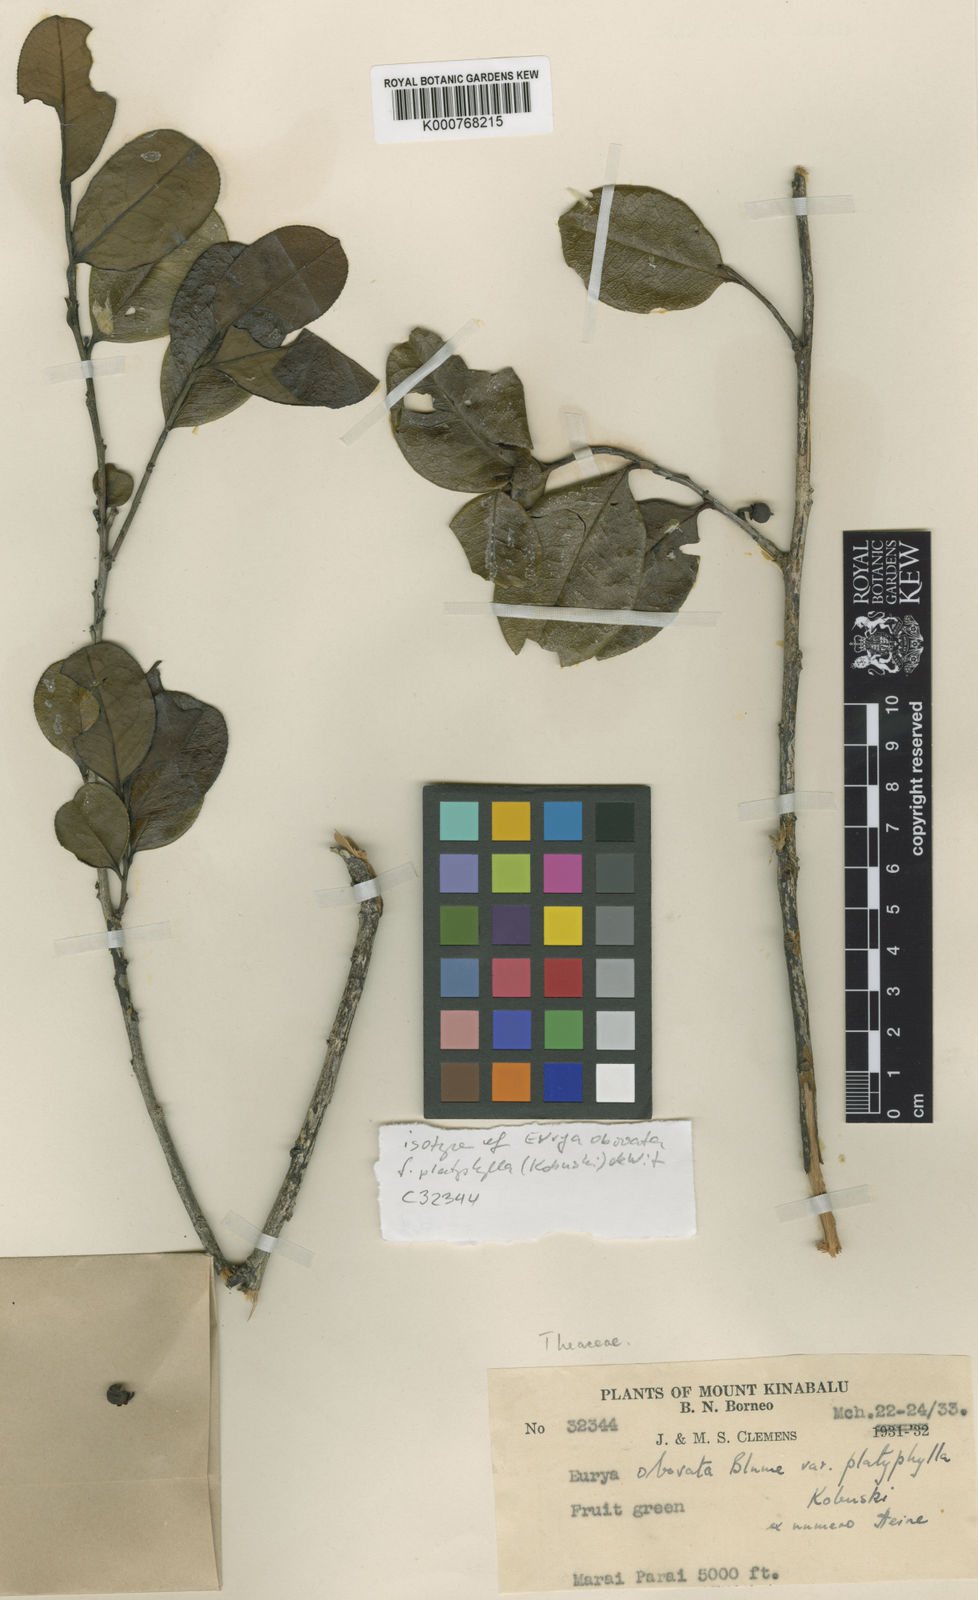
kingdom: Plantae
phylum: Tracheophyta
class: Magnoliopsida
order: Ericales
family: Pentaphylacaceae
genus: Eurya
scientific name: Eurya obovata
